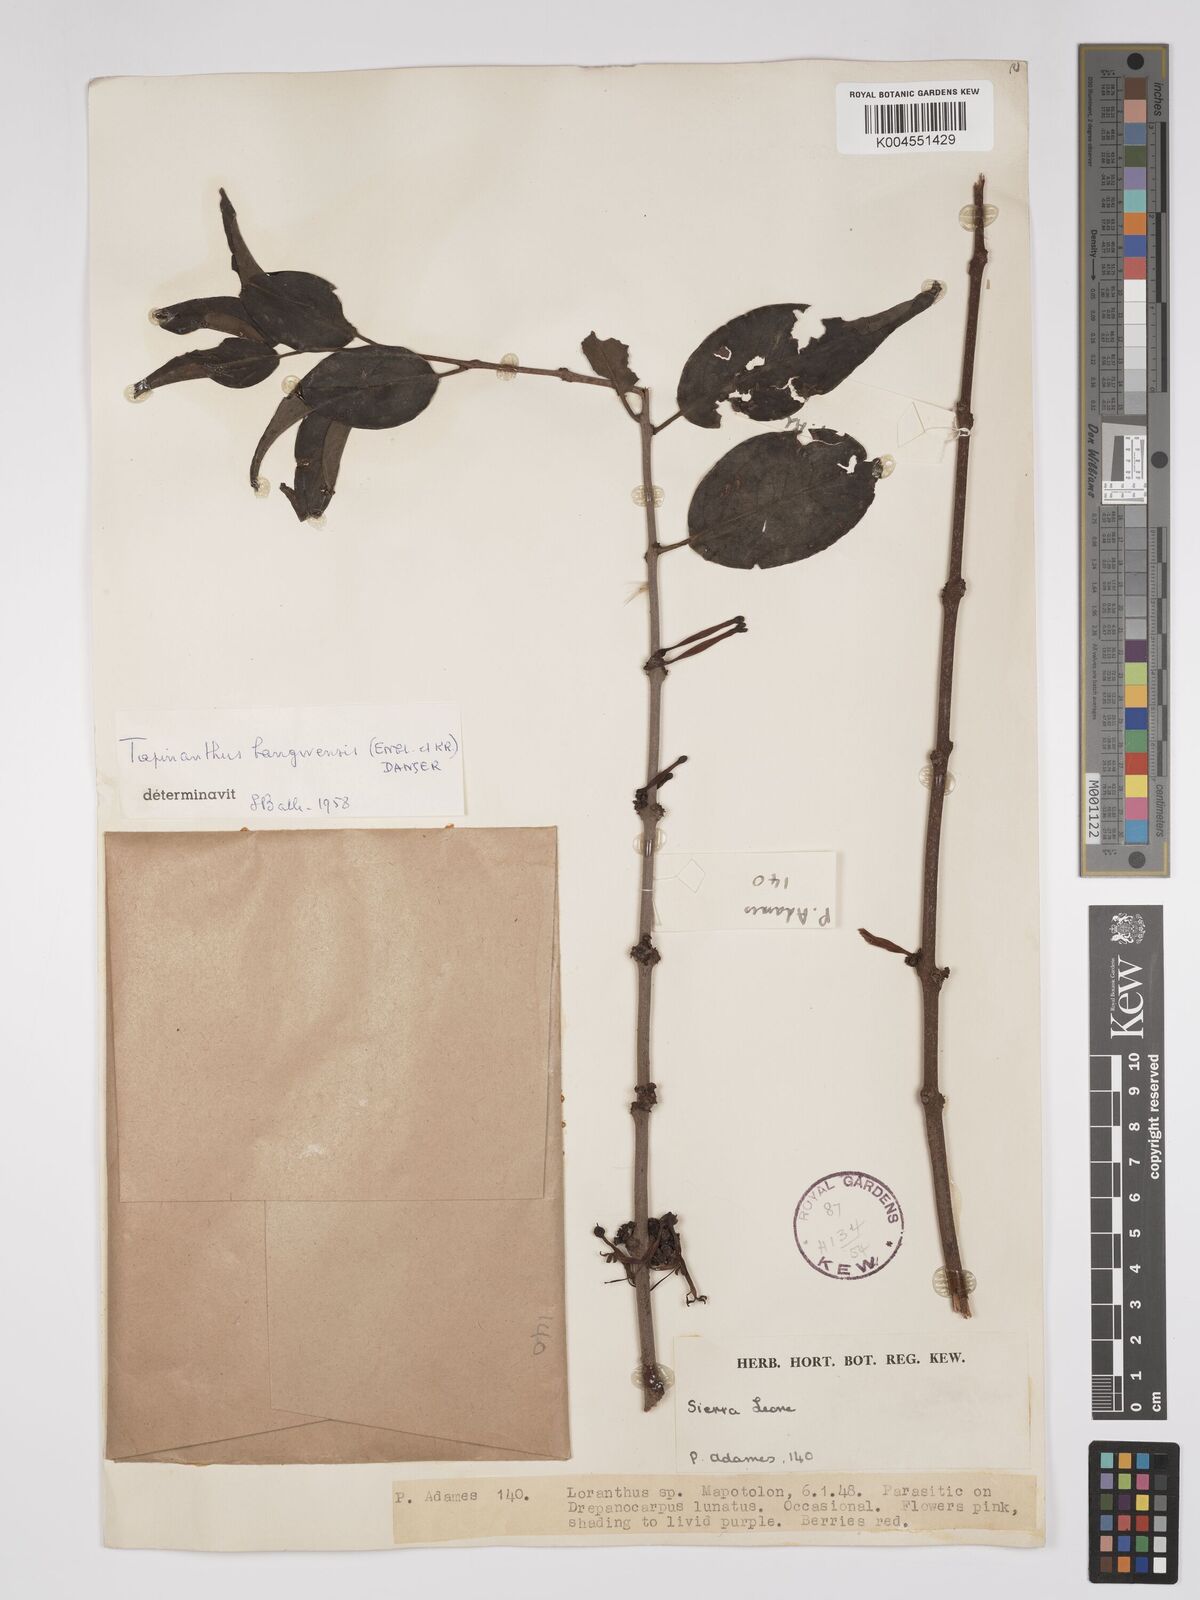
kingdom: Plantae
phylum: Tracheophyta
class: Magnoliopsida
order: Santalales
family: Loranthaceae
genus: Tapinanthus
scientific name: Tapinanthus bangwensis
